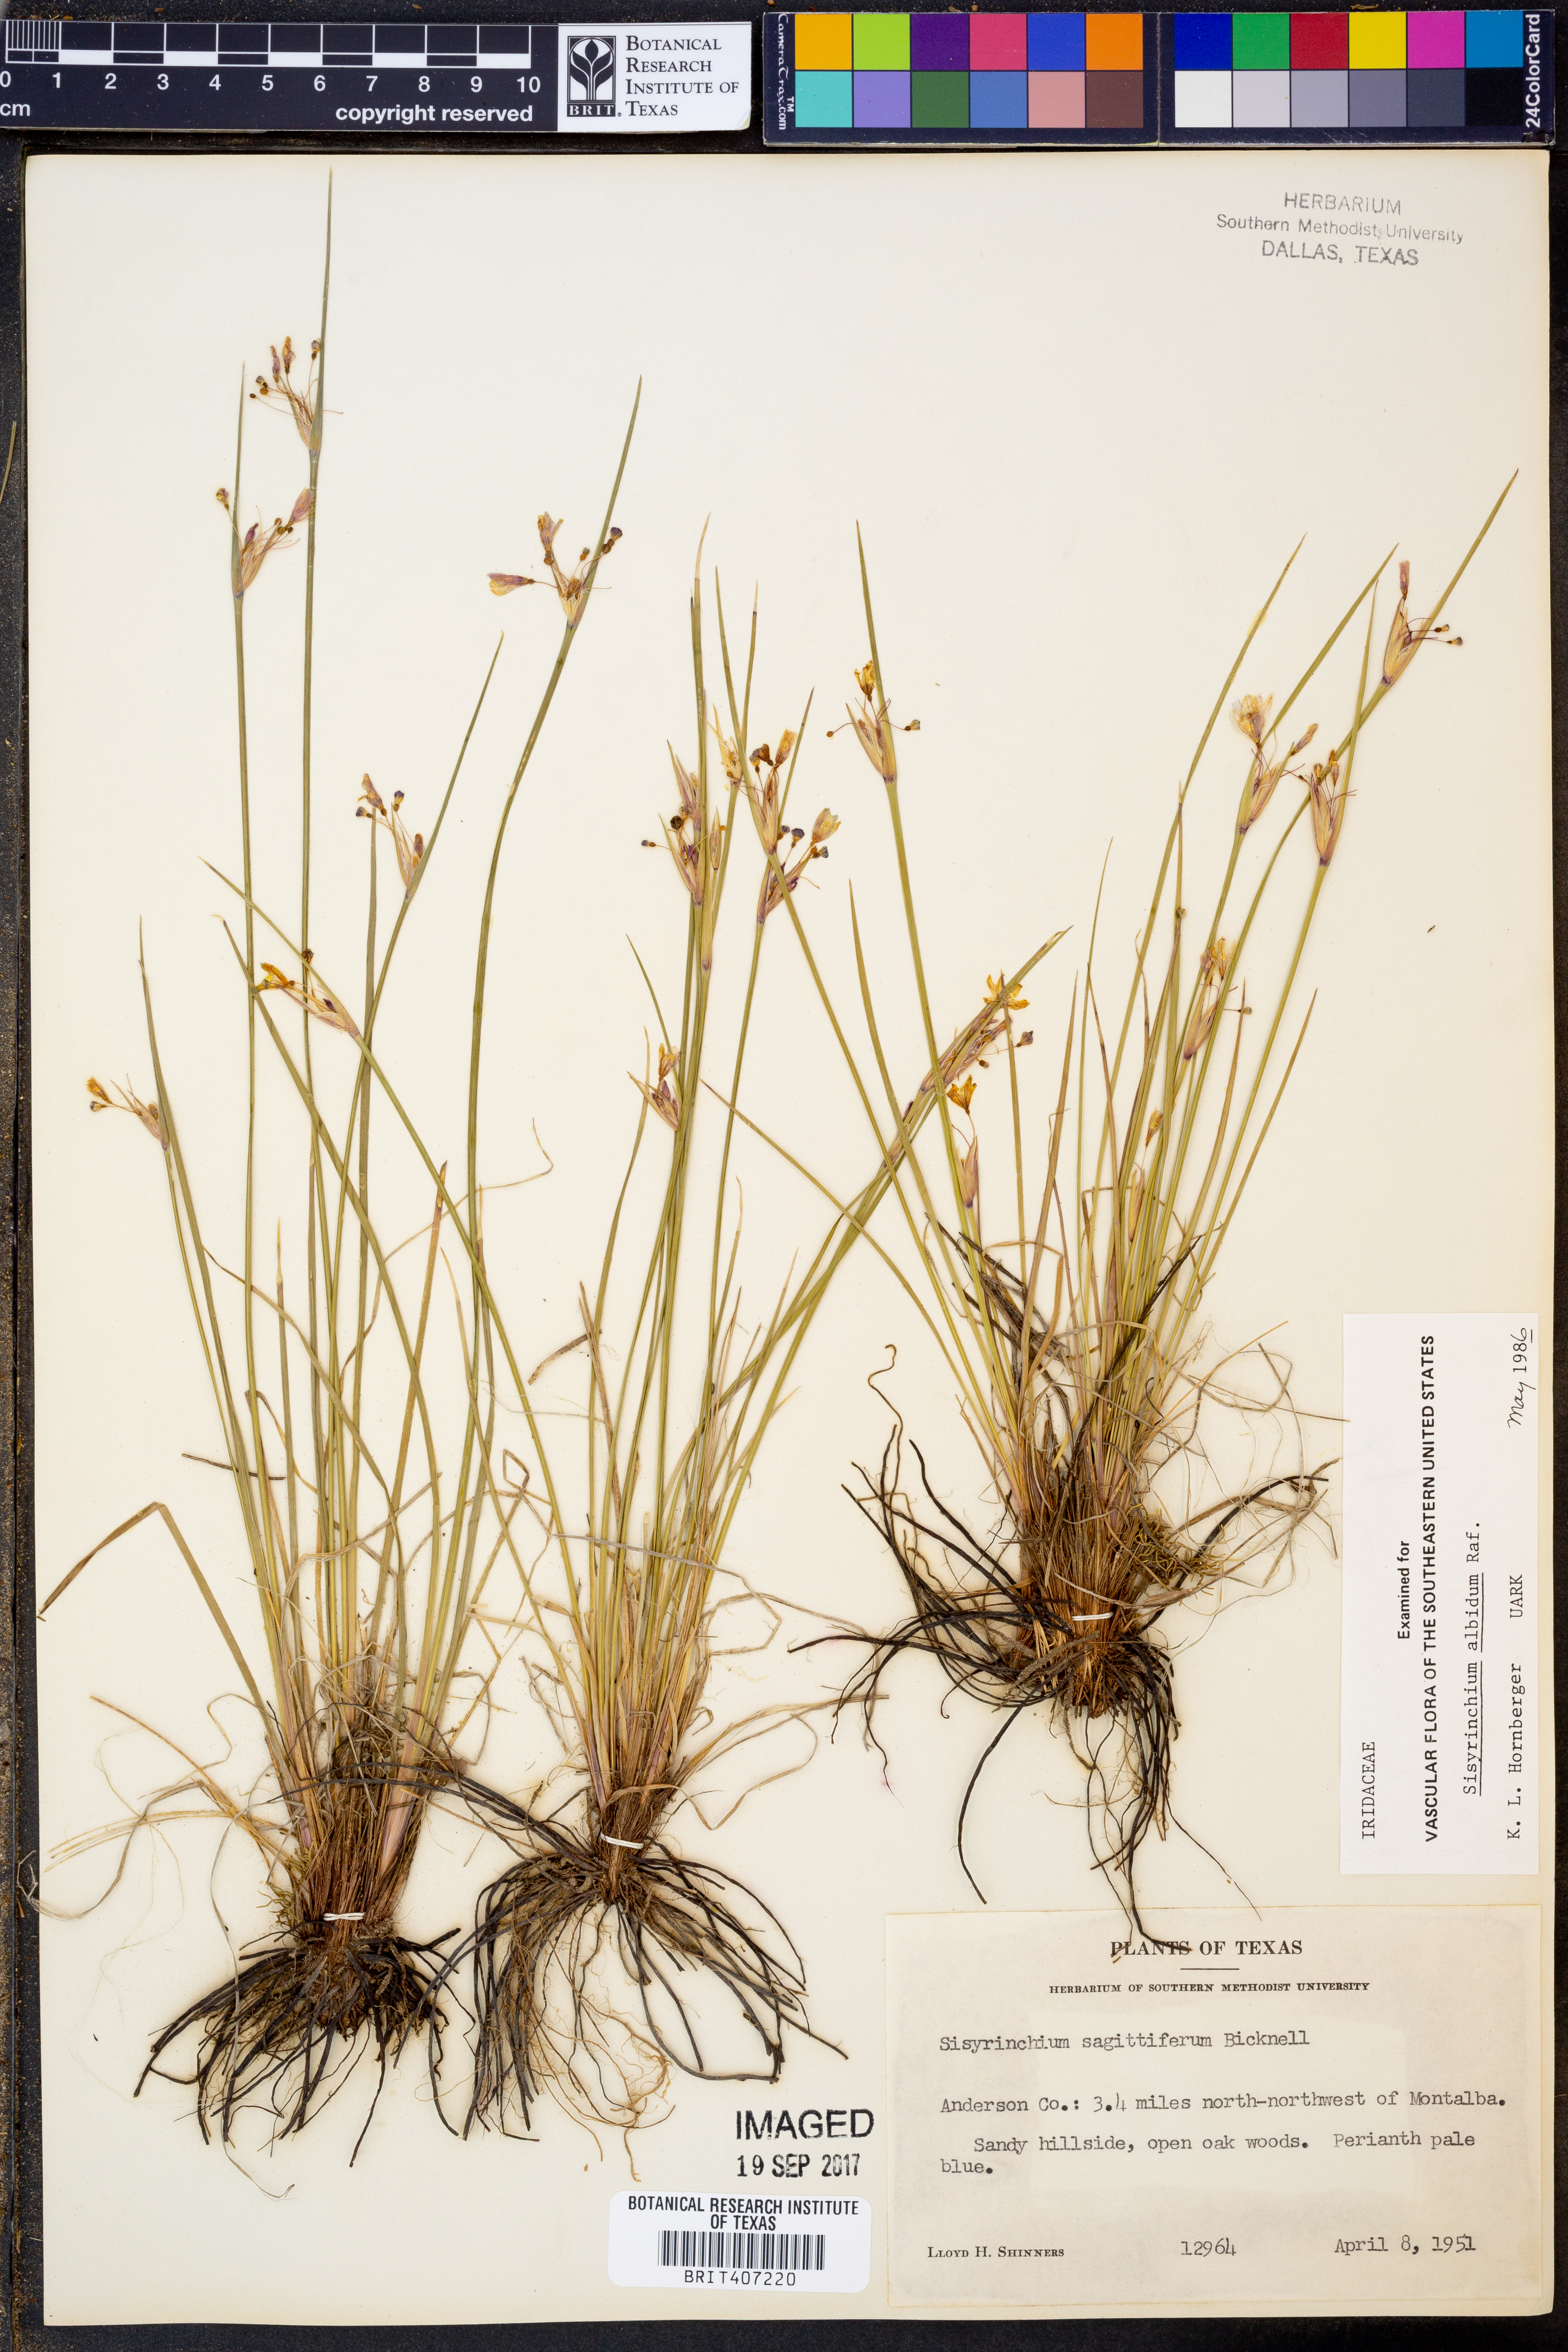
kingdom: Plantae
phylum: Tracheophyta
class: Liliopsida
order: Asparagales
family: Iridaceae
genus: Sisyrinchium
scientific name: Sisyrinchium albidum
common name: Pale blue-eyed-grass
